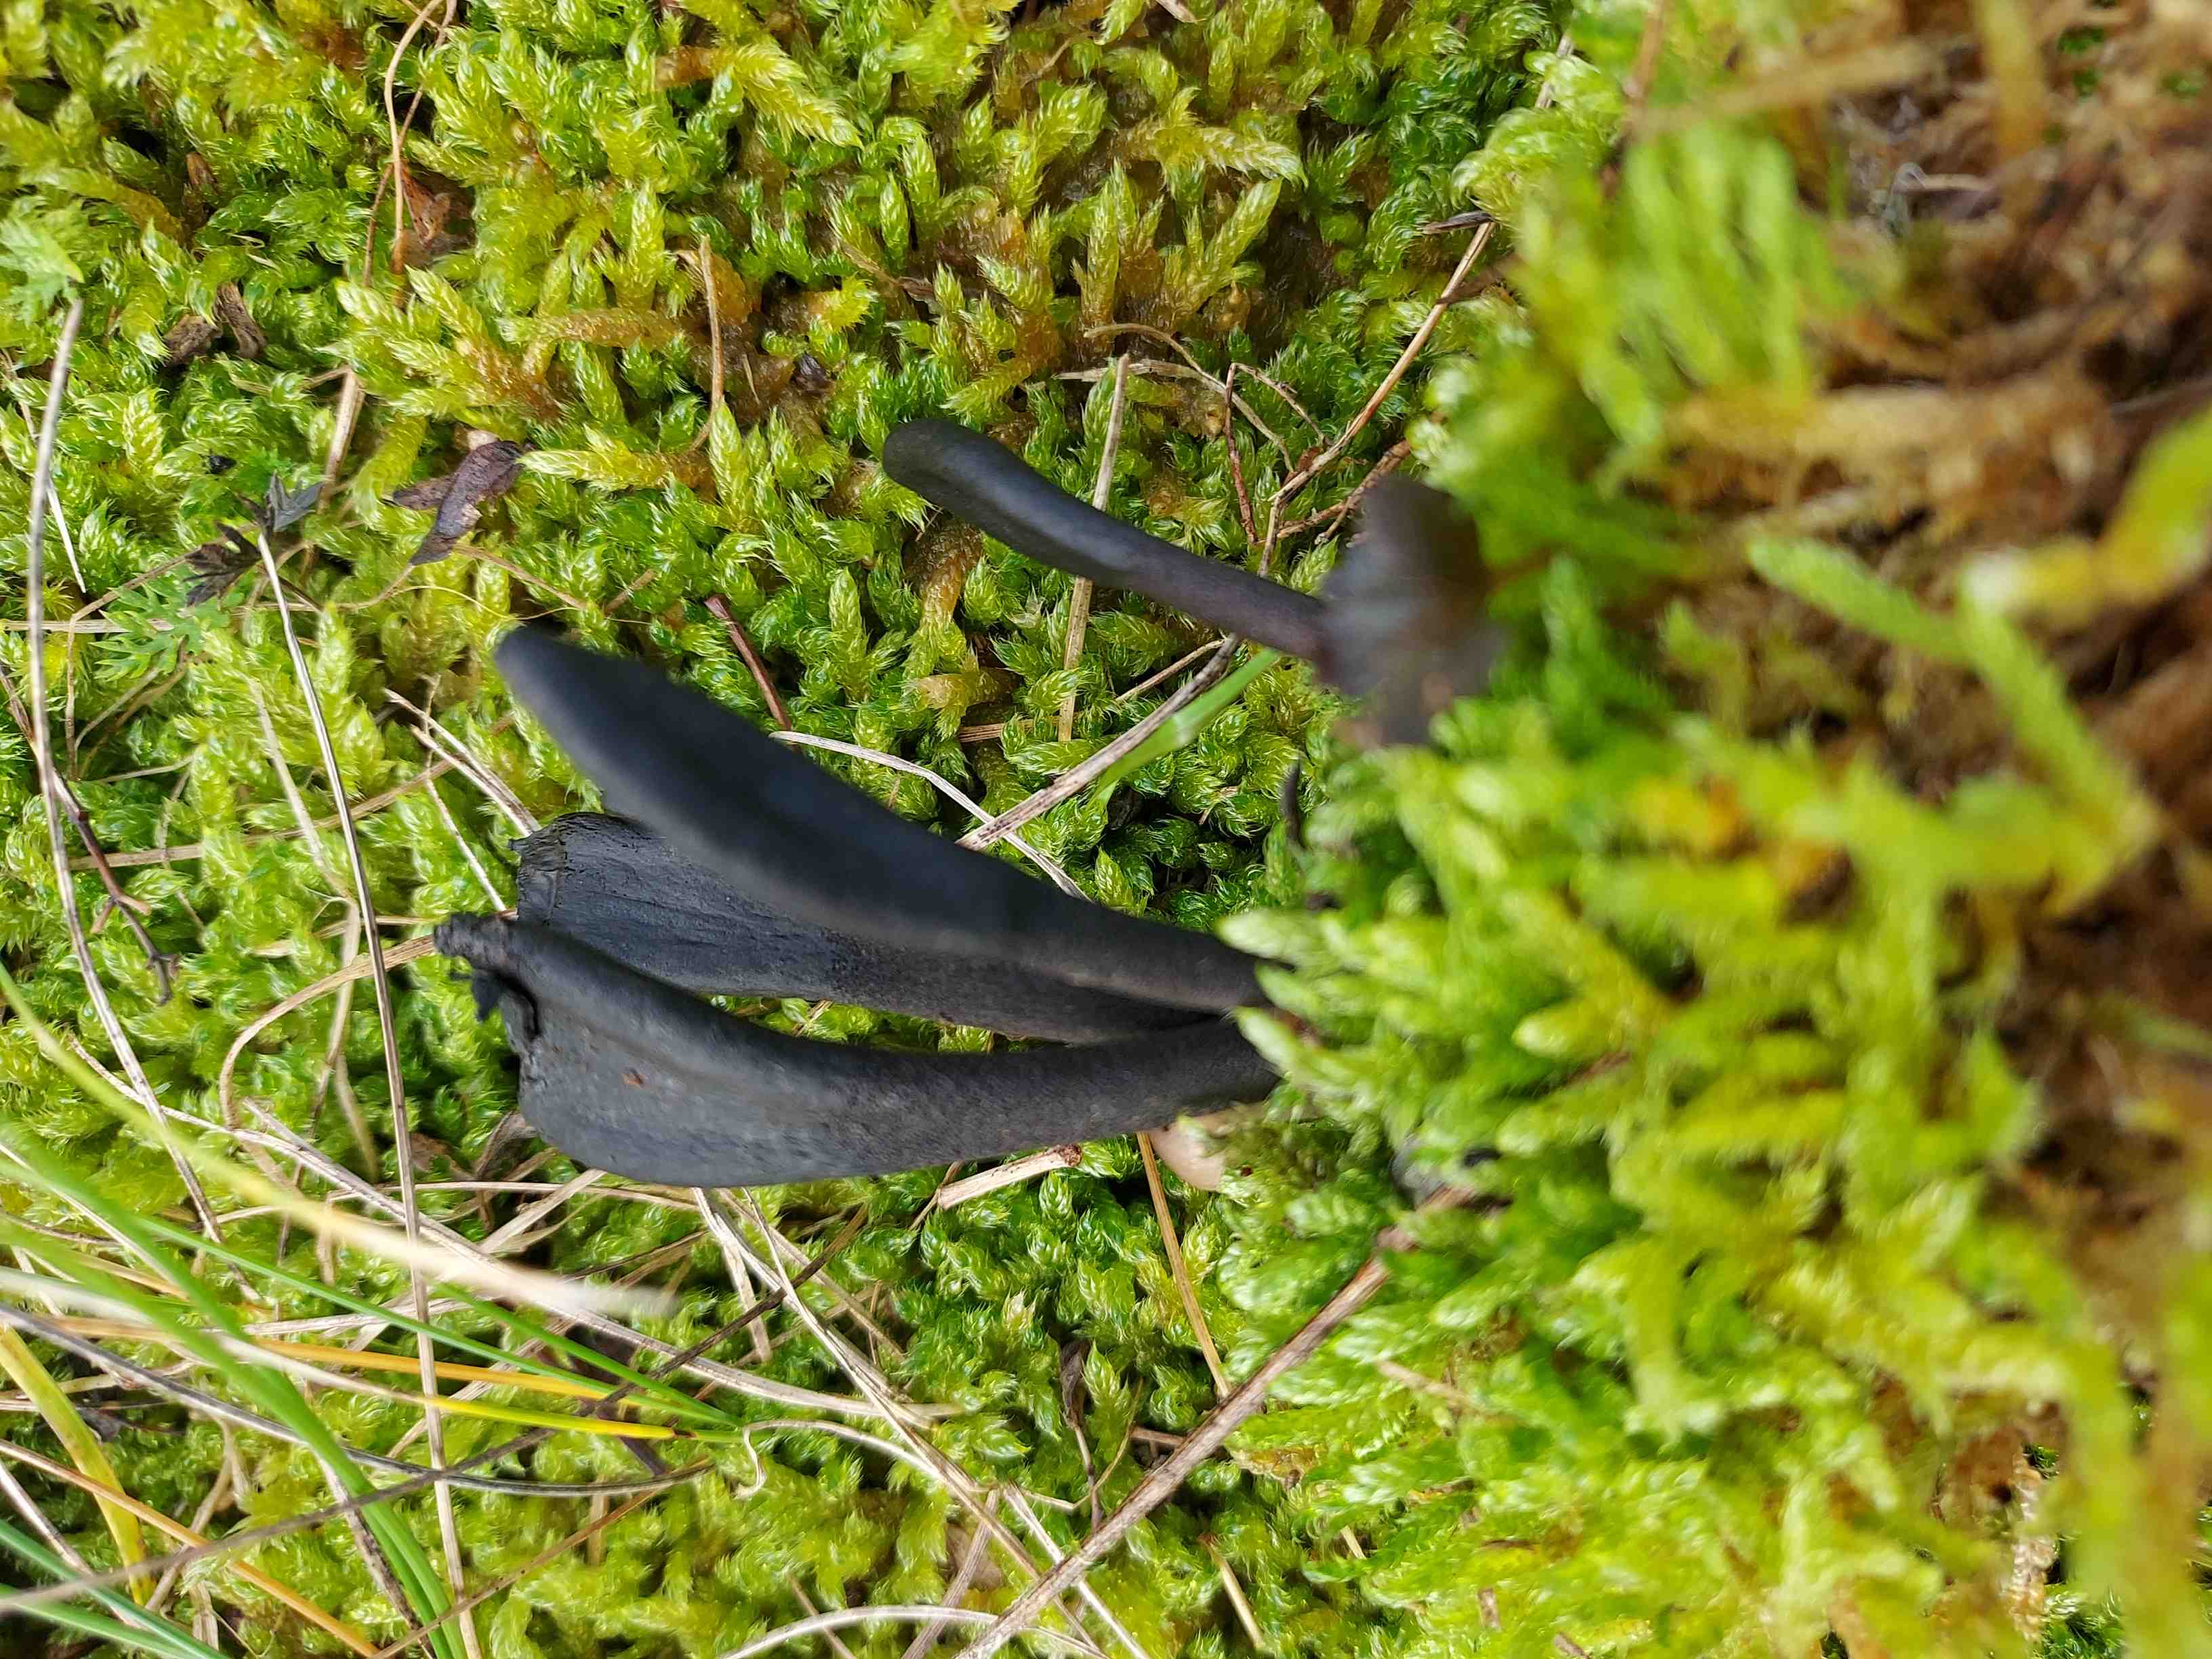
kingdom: Fungi
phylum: Ascomycota
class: Geoglossomycetes
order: Geoglossales
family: Geoglossaceae
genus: Geoglossum
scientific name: Geoglossum cookeianum
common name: bred jordtunge
